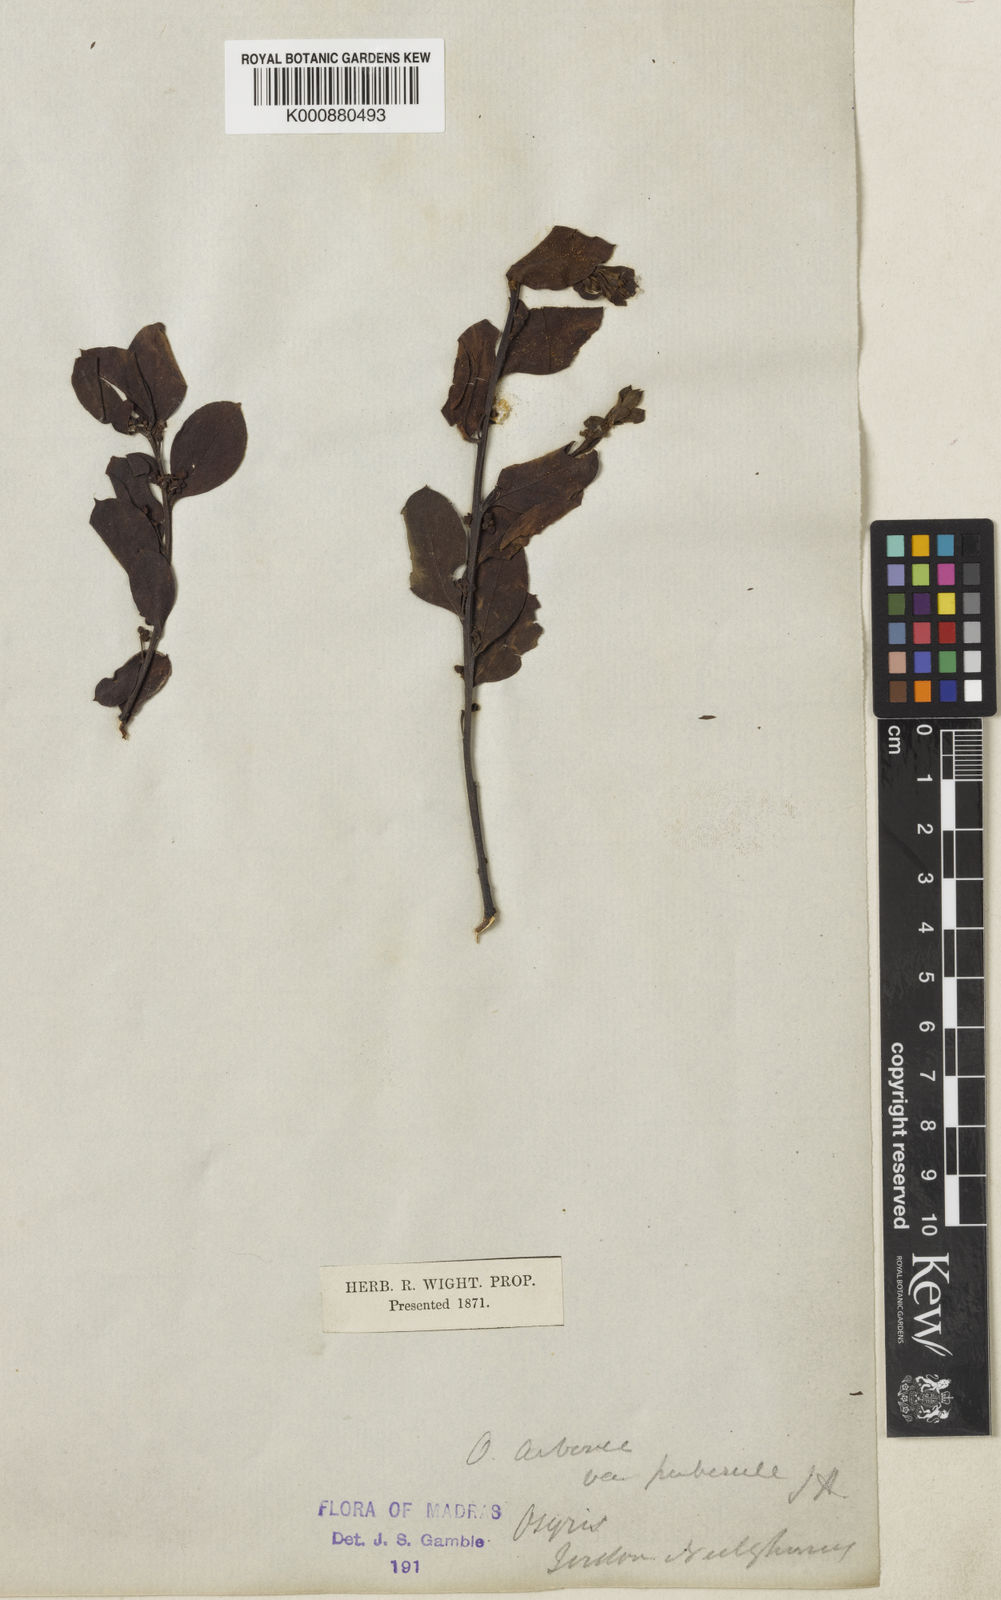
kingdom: Plantae
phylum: Tracheophyta
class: Magnoliopsida
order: Santalales
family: Santalaceae
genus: Osyris
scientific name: Osyris
